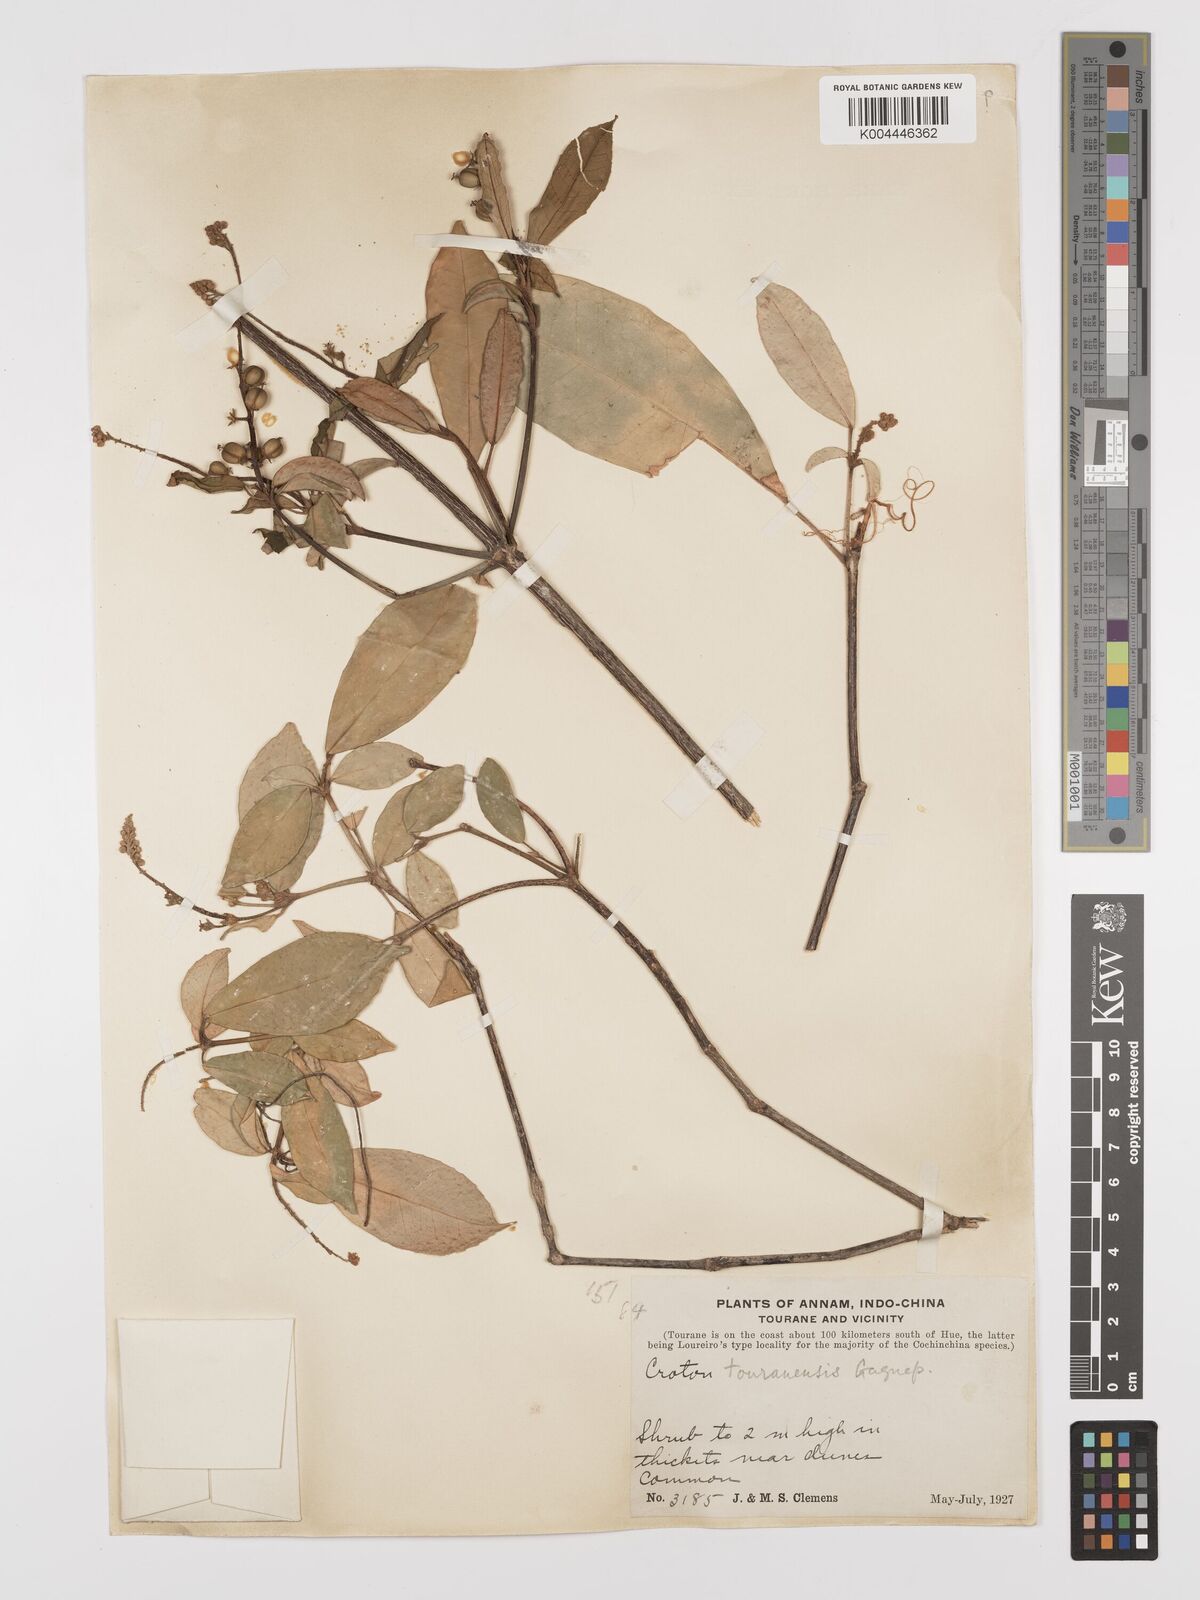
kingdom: Plantae
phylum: Tracheophyta
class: Magnoliopsida
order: Malpighiales
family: Euphorbiaceae
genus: Croton
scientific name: Croton touranensis
